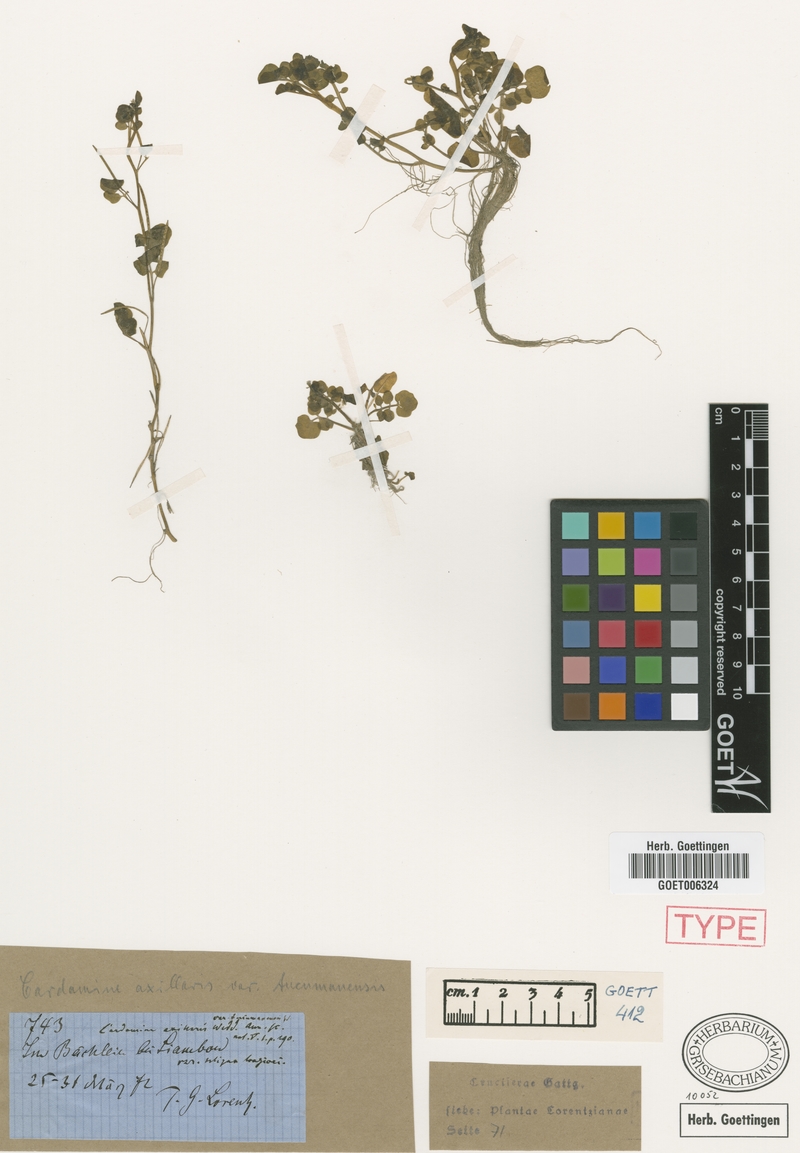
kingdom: Plantae
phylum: Tracheophyta
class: Magnoliopsida
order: Brassicales
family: Brassicaceae
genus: Cardamine
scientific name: Cardamine bonariensis
